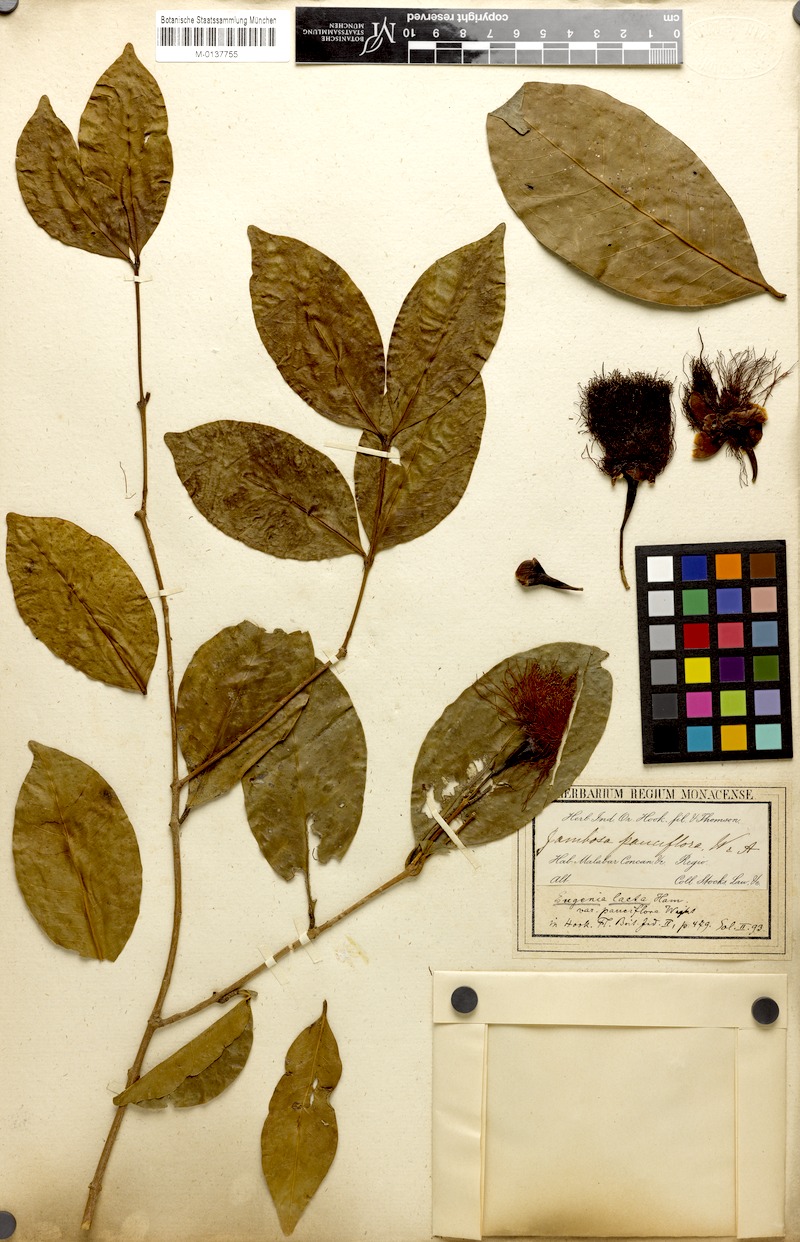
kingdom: Plantae
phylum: Tracheophyta
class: Magnoliopsida
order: Myrtales
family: Myrtaceae
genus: Syzygium
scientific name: Syzygium laetum
